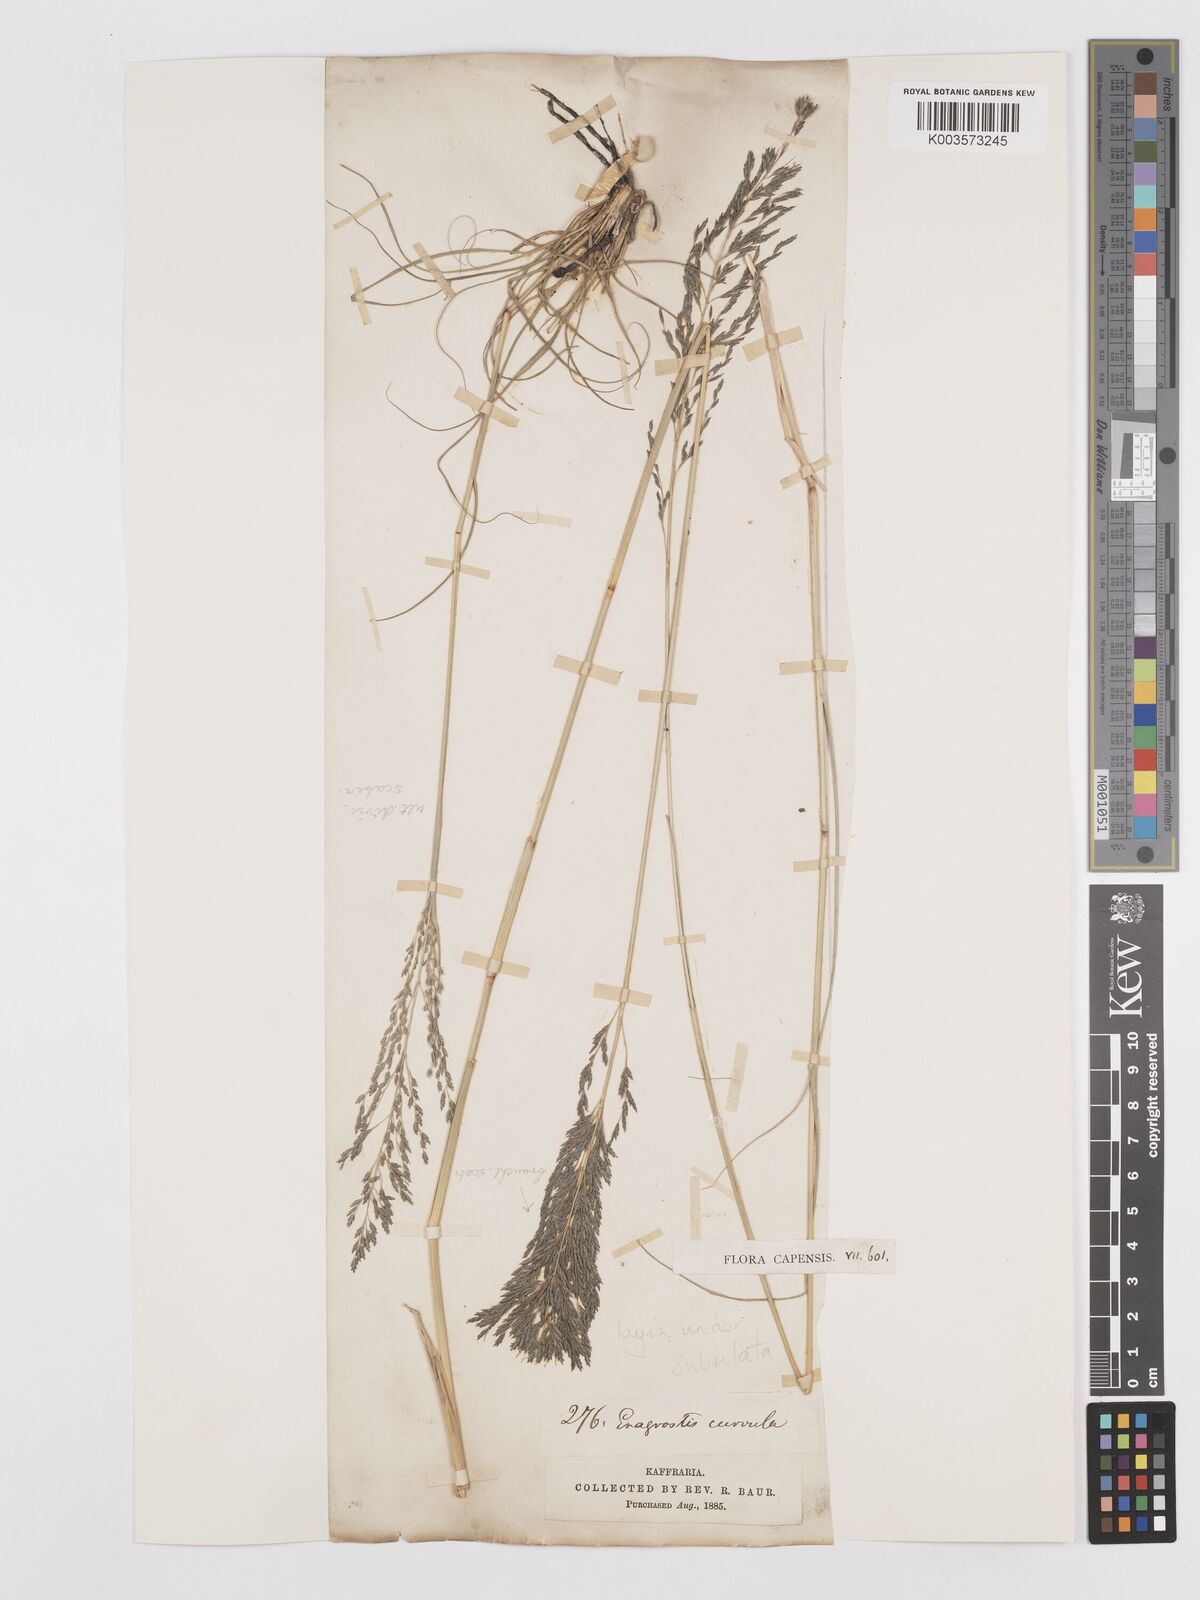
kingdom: Plantae
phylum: Tracheophyta
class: Liliopsida
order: Poales
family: Poaceae
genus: Eragrostis
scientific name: Eragrostis curvula
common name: African love-grass
